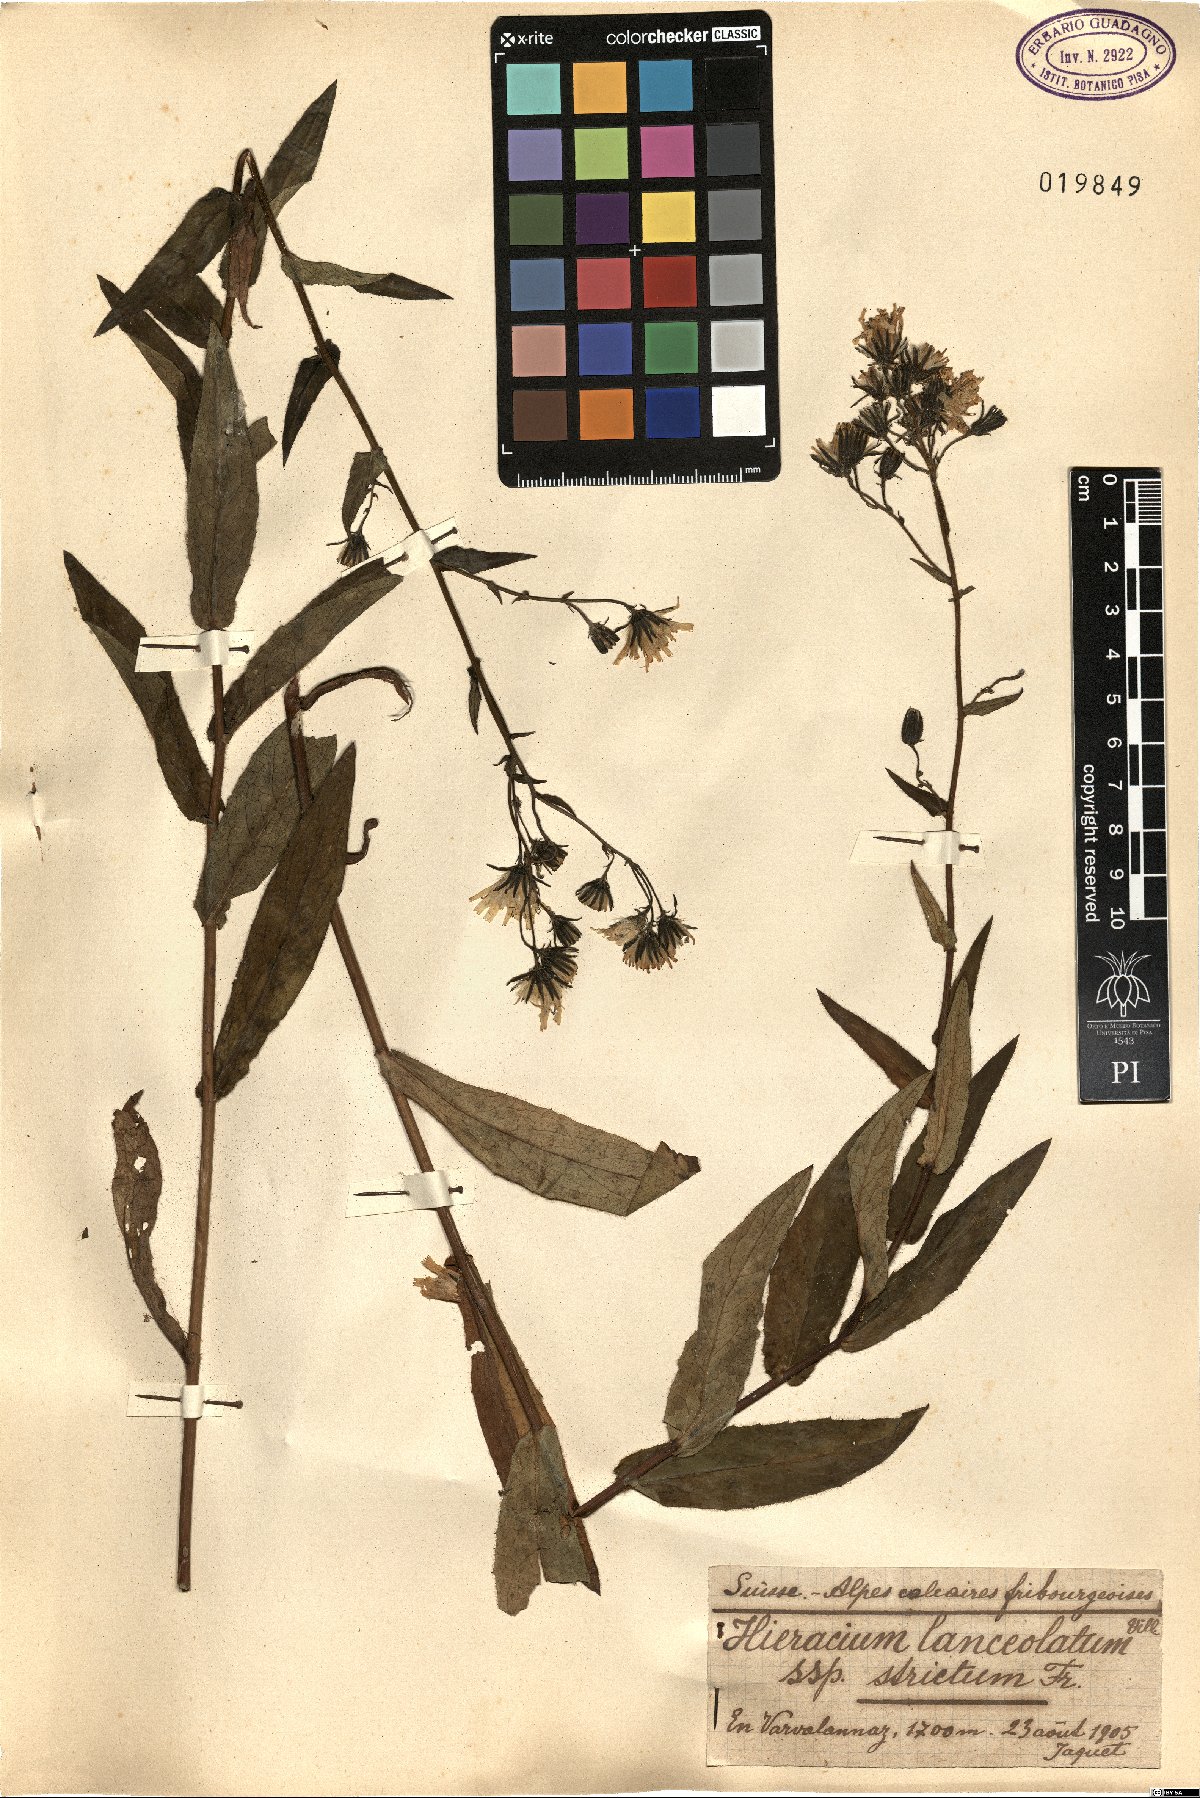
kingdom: Plantae
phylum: Tracheophyta
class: Magnoliopsida
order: Asterales
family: Asteraceae
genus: Hieracium
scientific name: Hieracium prenanthoides
